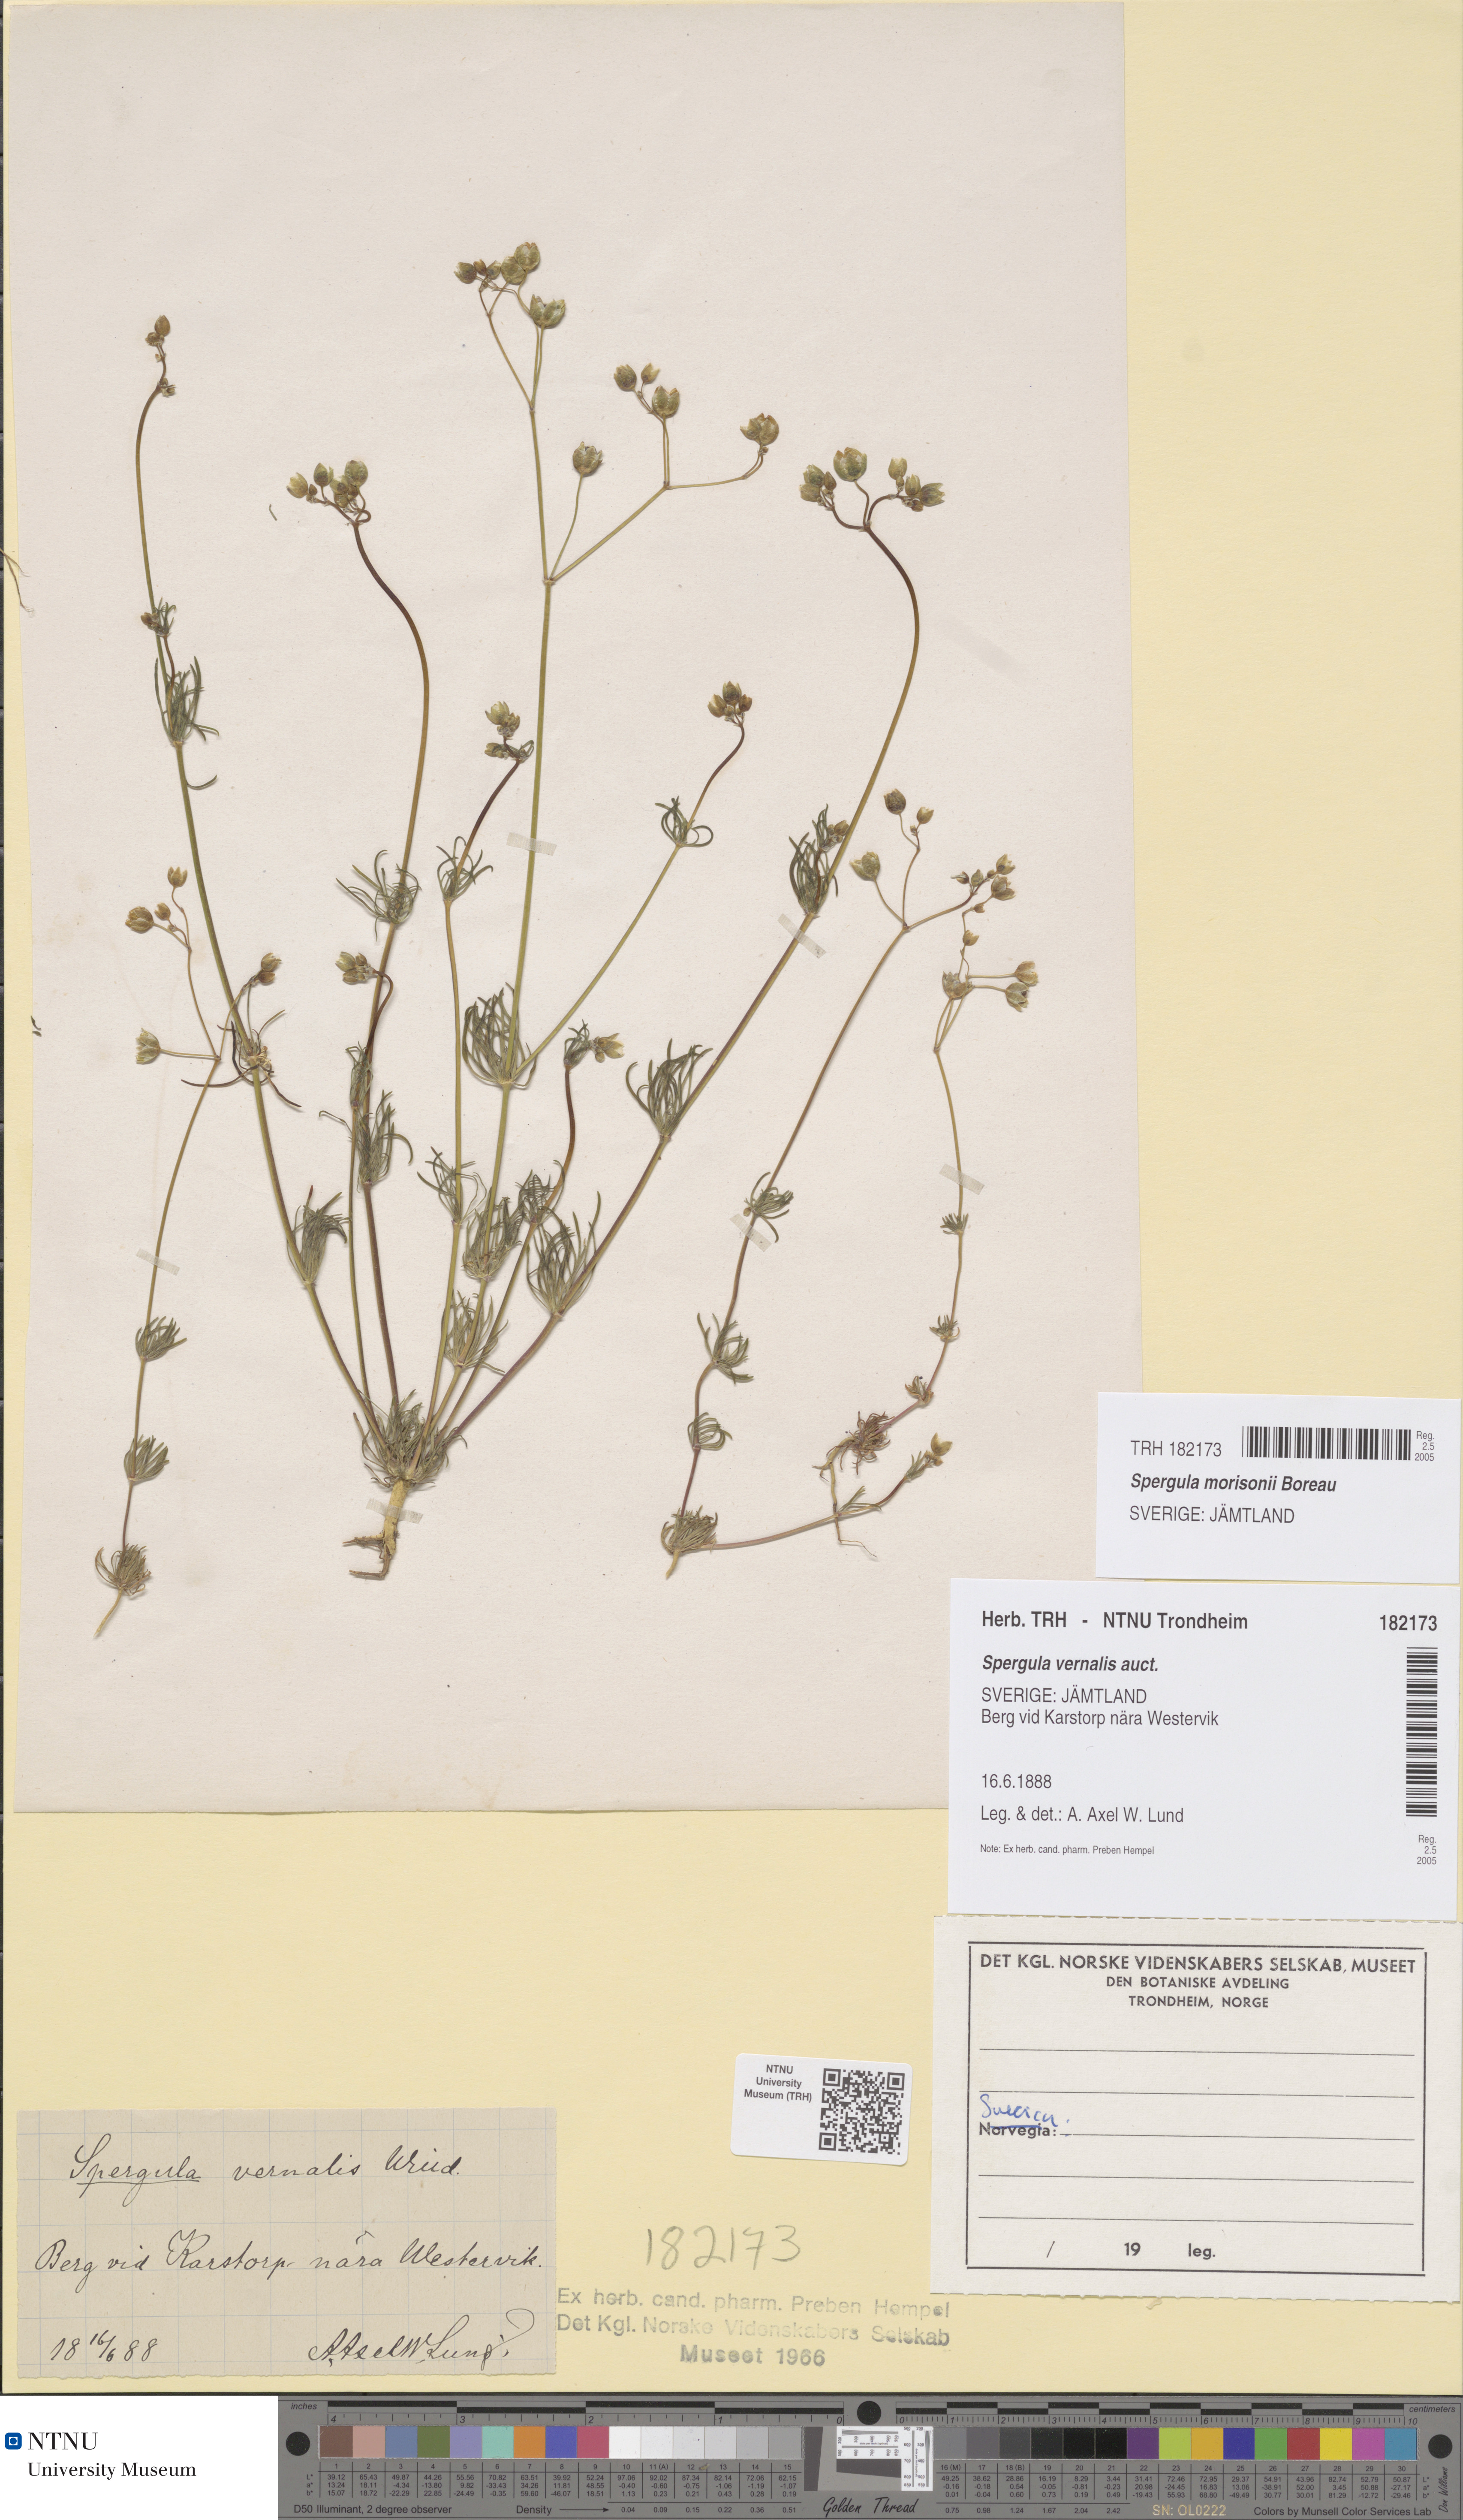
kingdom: Plantae
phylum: Tracheophyta
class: Magnoliopsida
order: Caryophyllales
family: Caryophyllaceae
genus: Spergula
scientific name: Spergula morisonii
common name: Pearlwort spurrey
